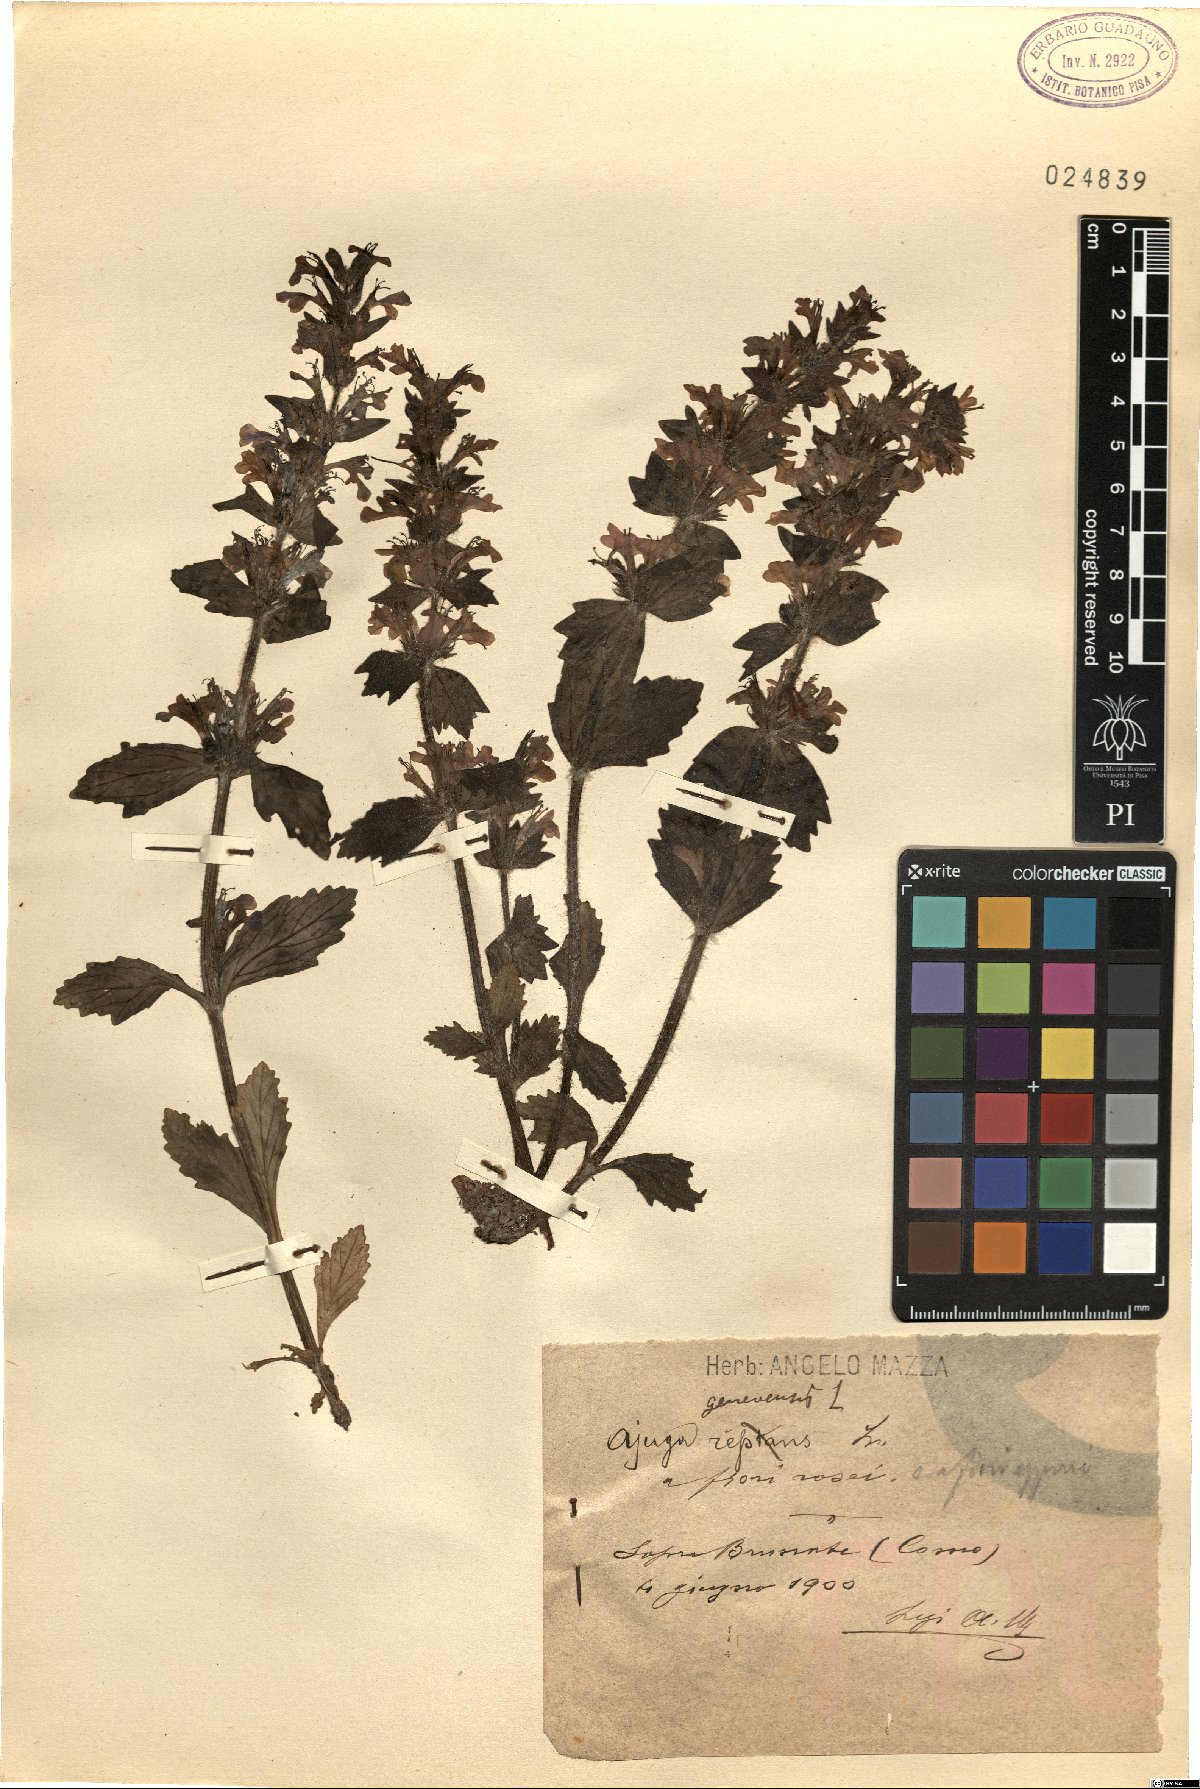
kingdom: Plantae
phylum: Tracheophyta
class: Magnoliopsida
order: Lamiales
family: Lamiaceae
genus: Ajuga
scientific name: Ajuga genevensis
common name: Blue bugle
